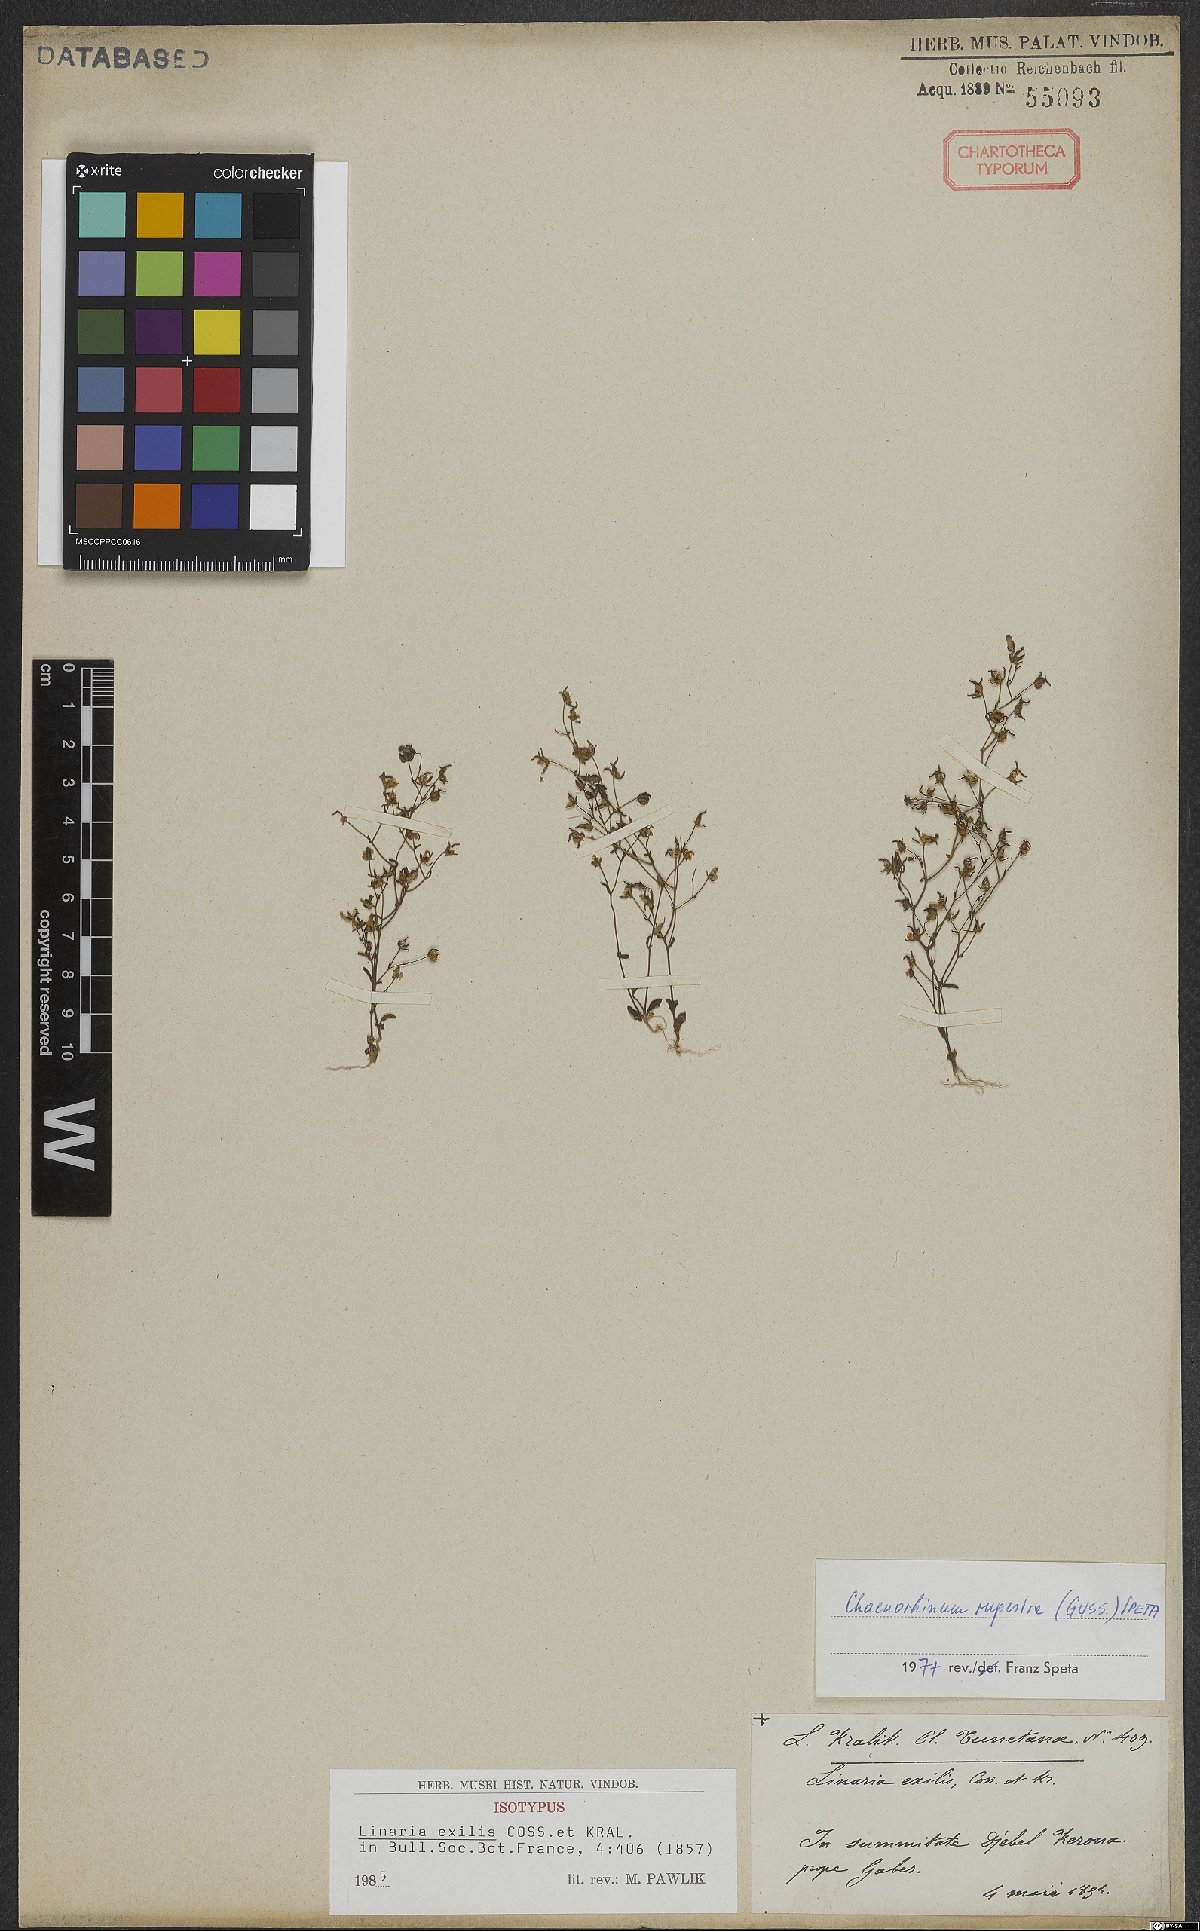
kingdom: Plantae
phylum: Tracheophyta
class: Magnoliopsida
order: Lamiales
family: Plantaginaceae
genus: Chaenorhinum
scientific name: Chaenorhinum rupestre
